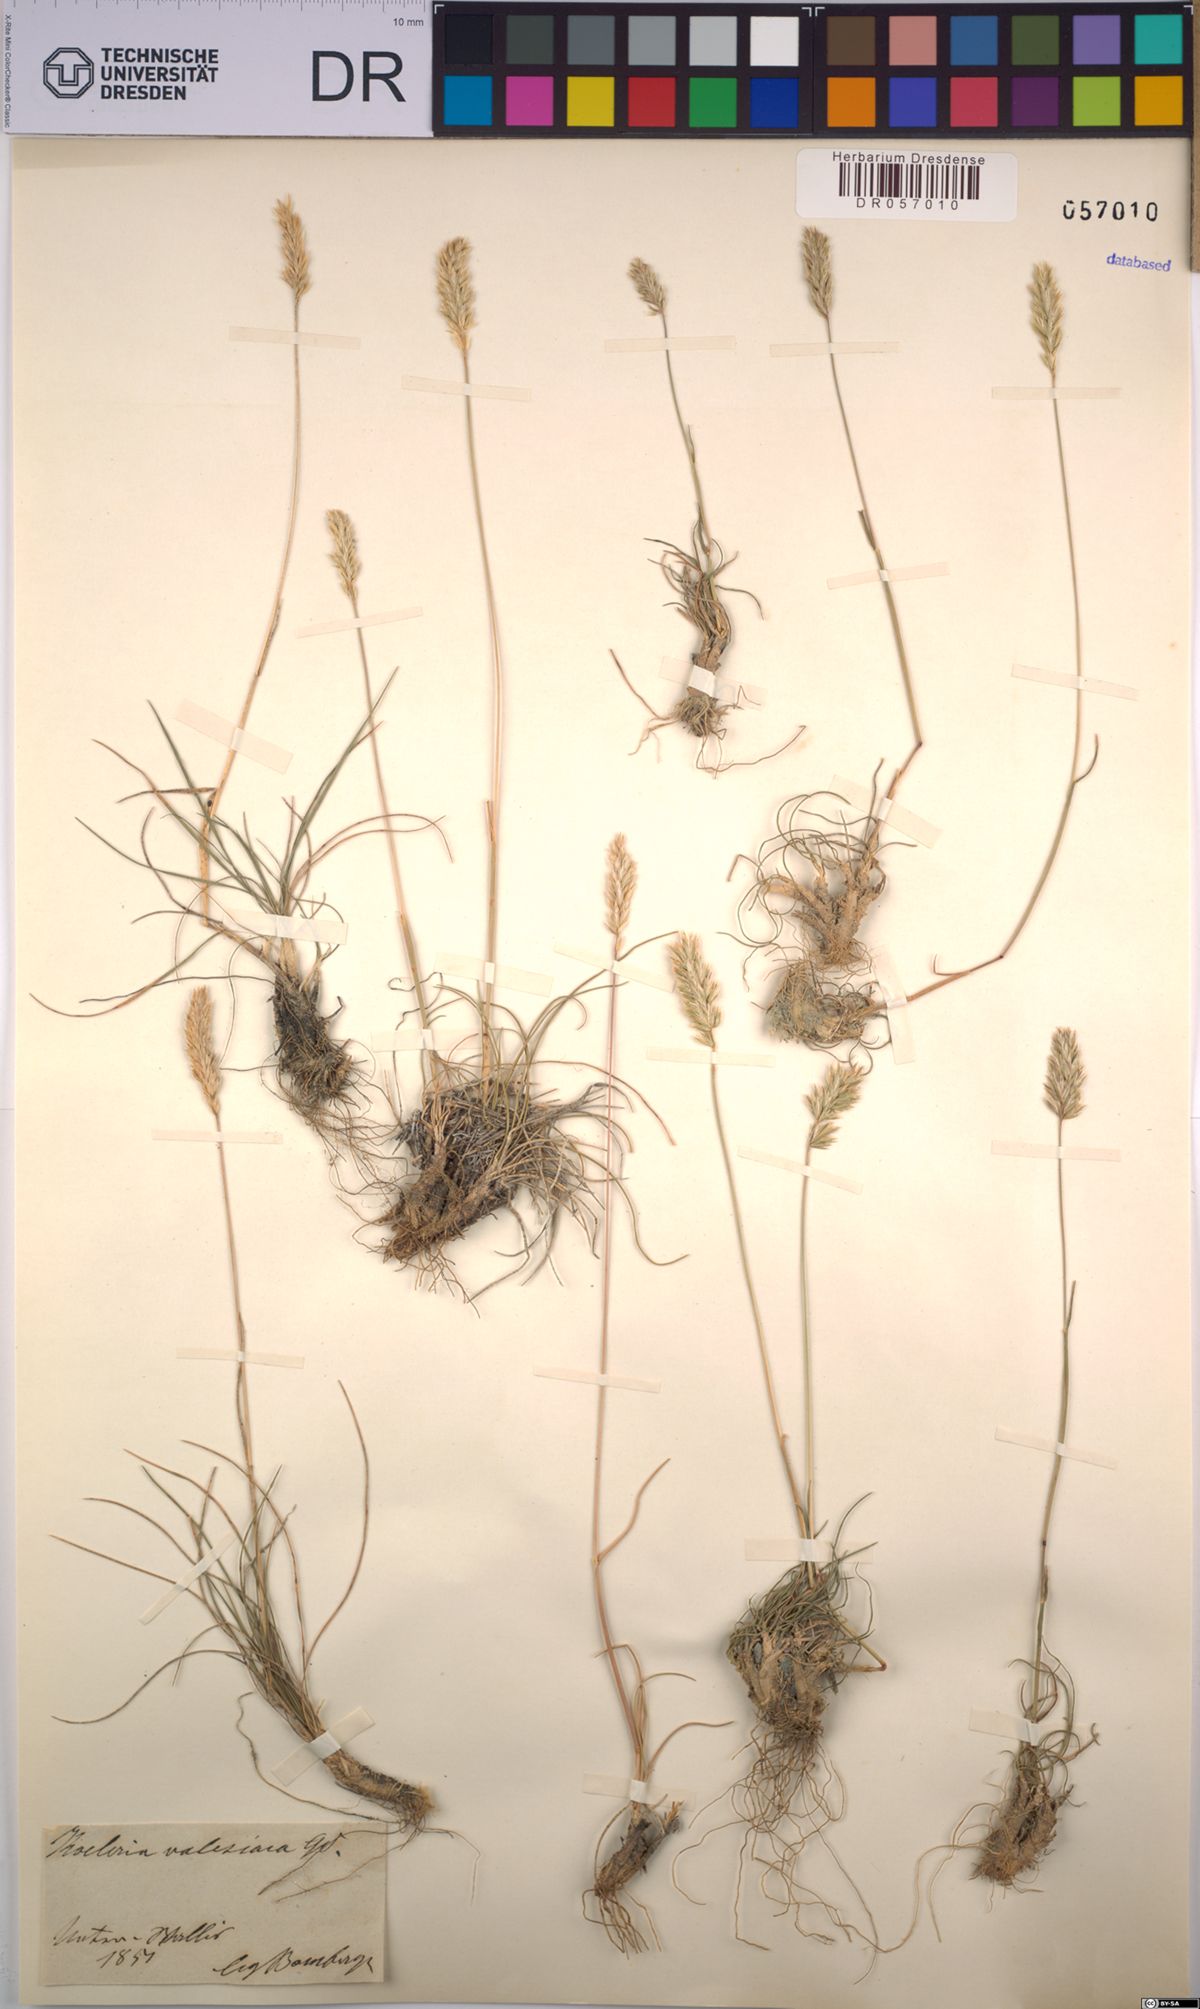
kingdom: Plantae
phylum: Tracheophyta
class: Liliopsida
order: Poales
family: Poaceae
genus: Koeleria
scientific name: Koeleria vallesiana
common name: Somerset hair-grass
